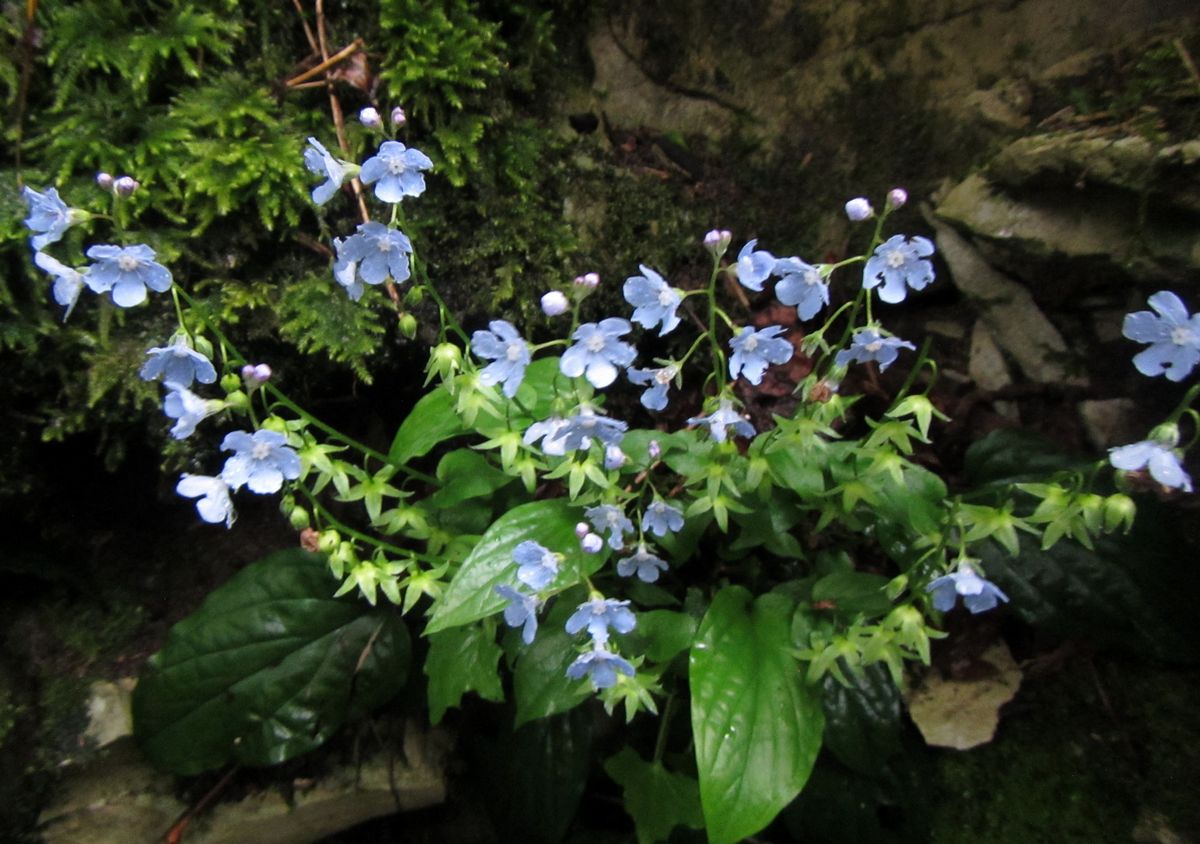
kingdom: Plantae
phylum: Tracheophyta
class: Magnoliopsida
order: Boraginales
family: Boraginaceae
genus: Omphalodes
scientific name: Omphalodes cappadocica
